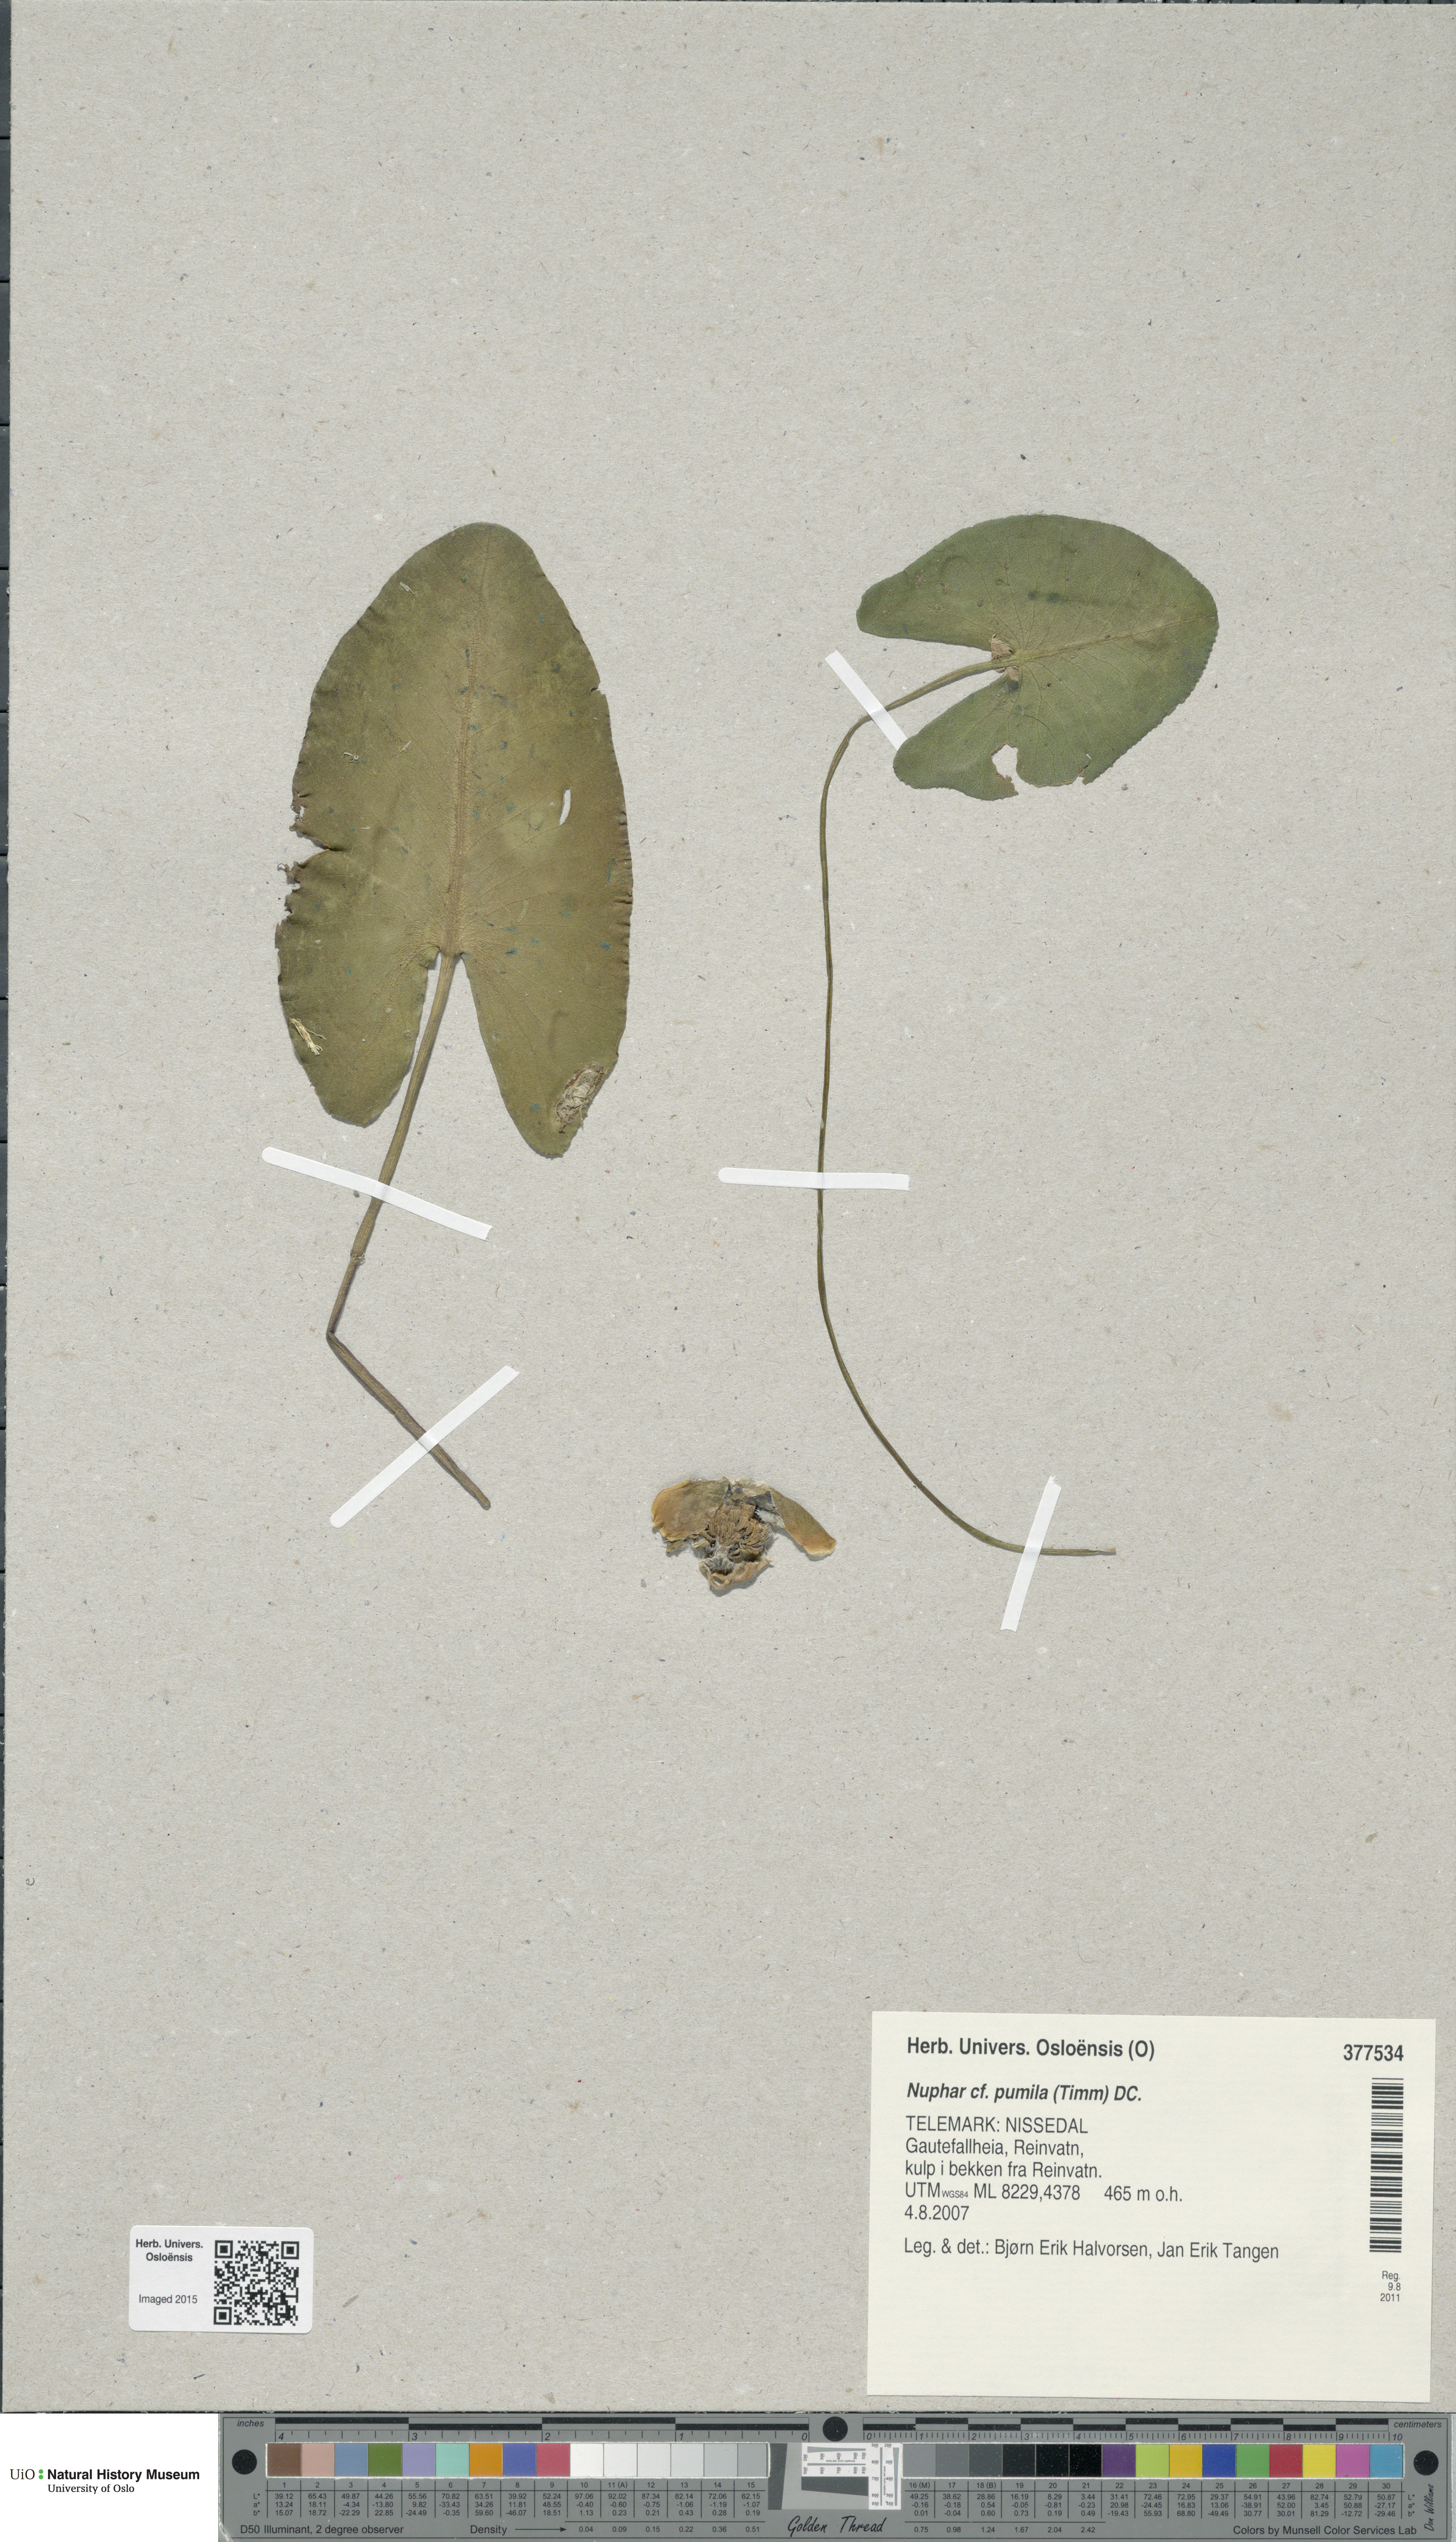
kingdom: Plantae
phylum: Tracheophyta
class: Magnoliopsida
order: Nymphaeales
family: Nymphaeaceae
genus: Nuphar
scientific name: Nuphar pumila
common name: Least water-lily
